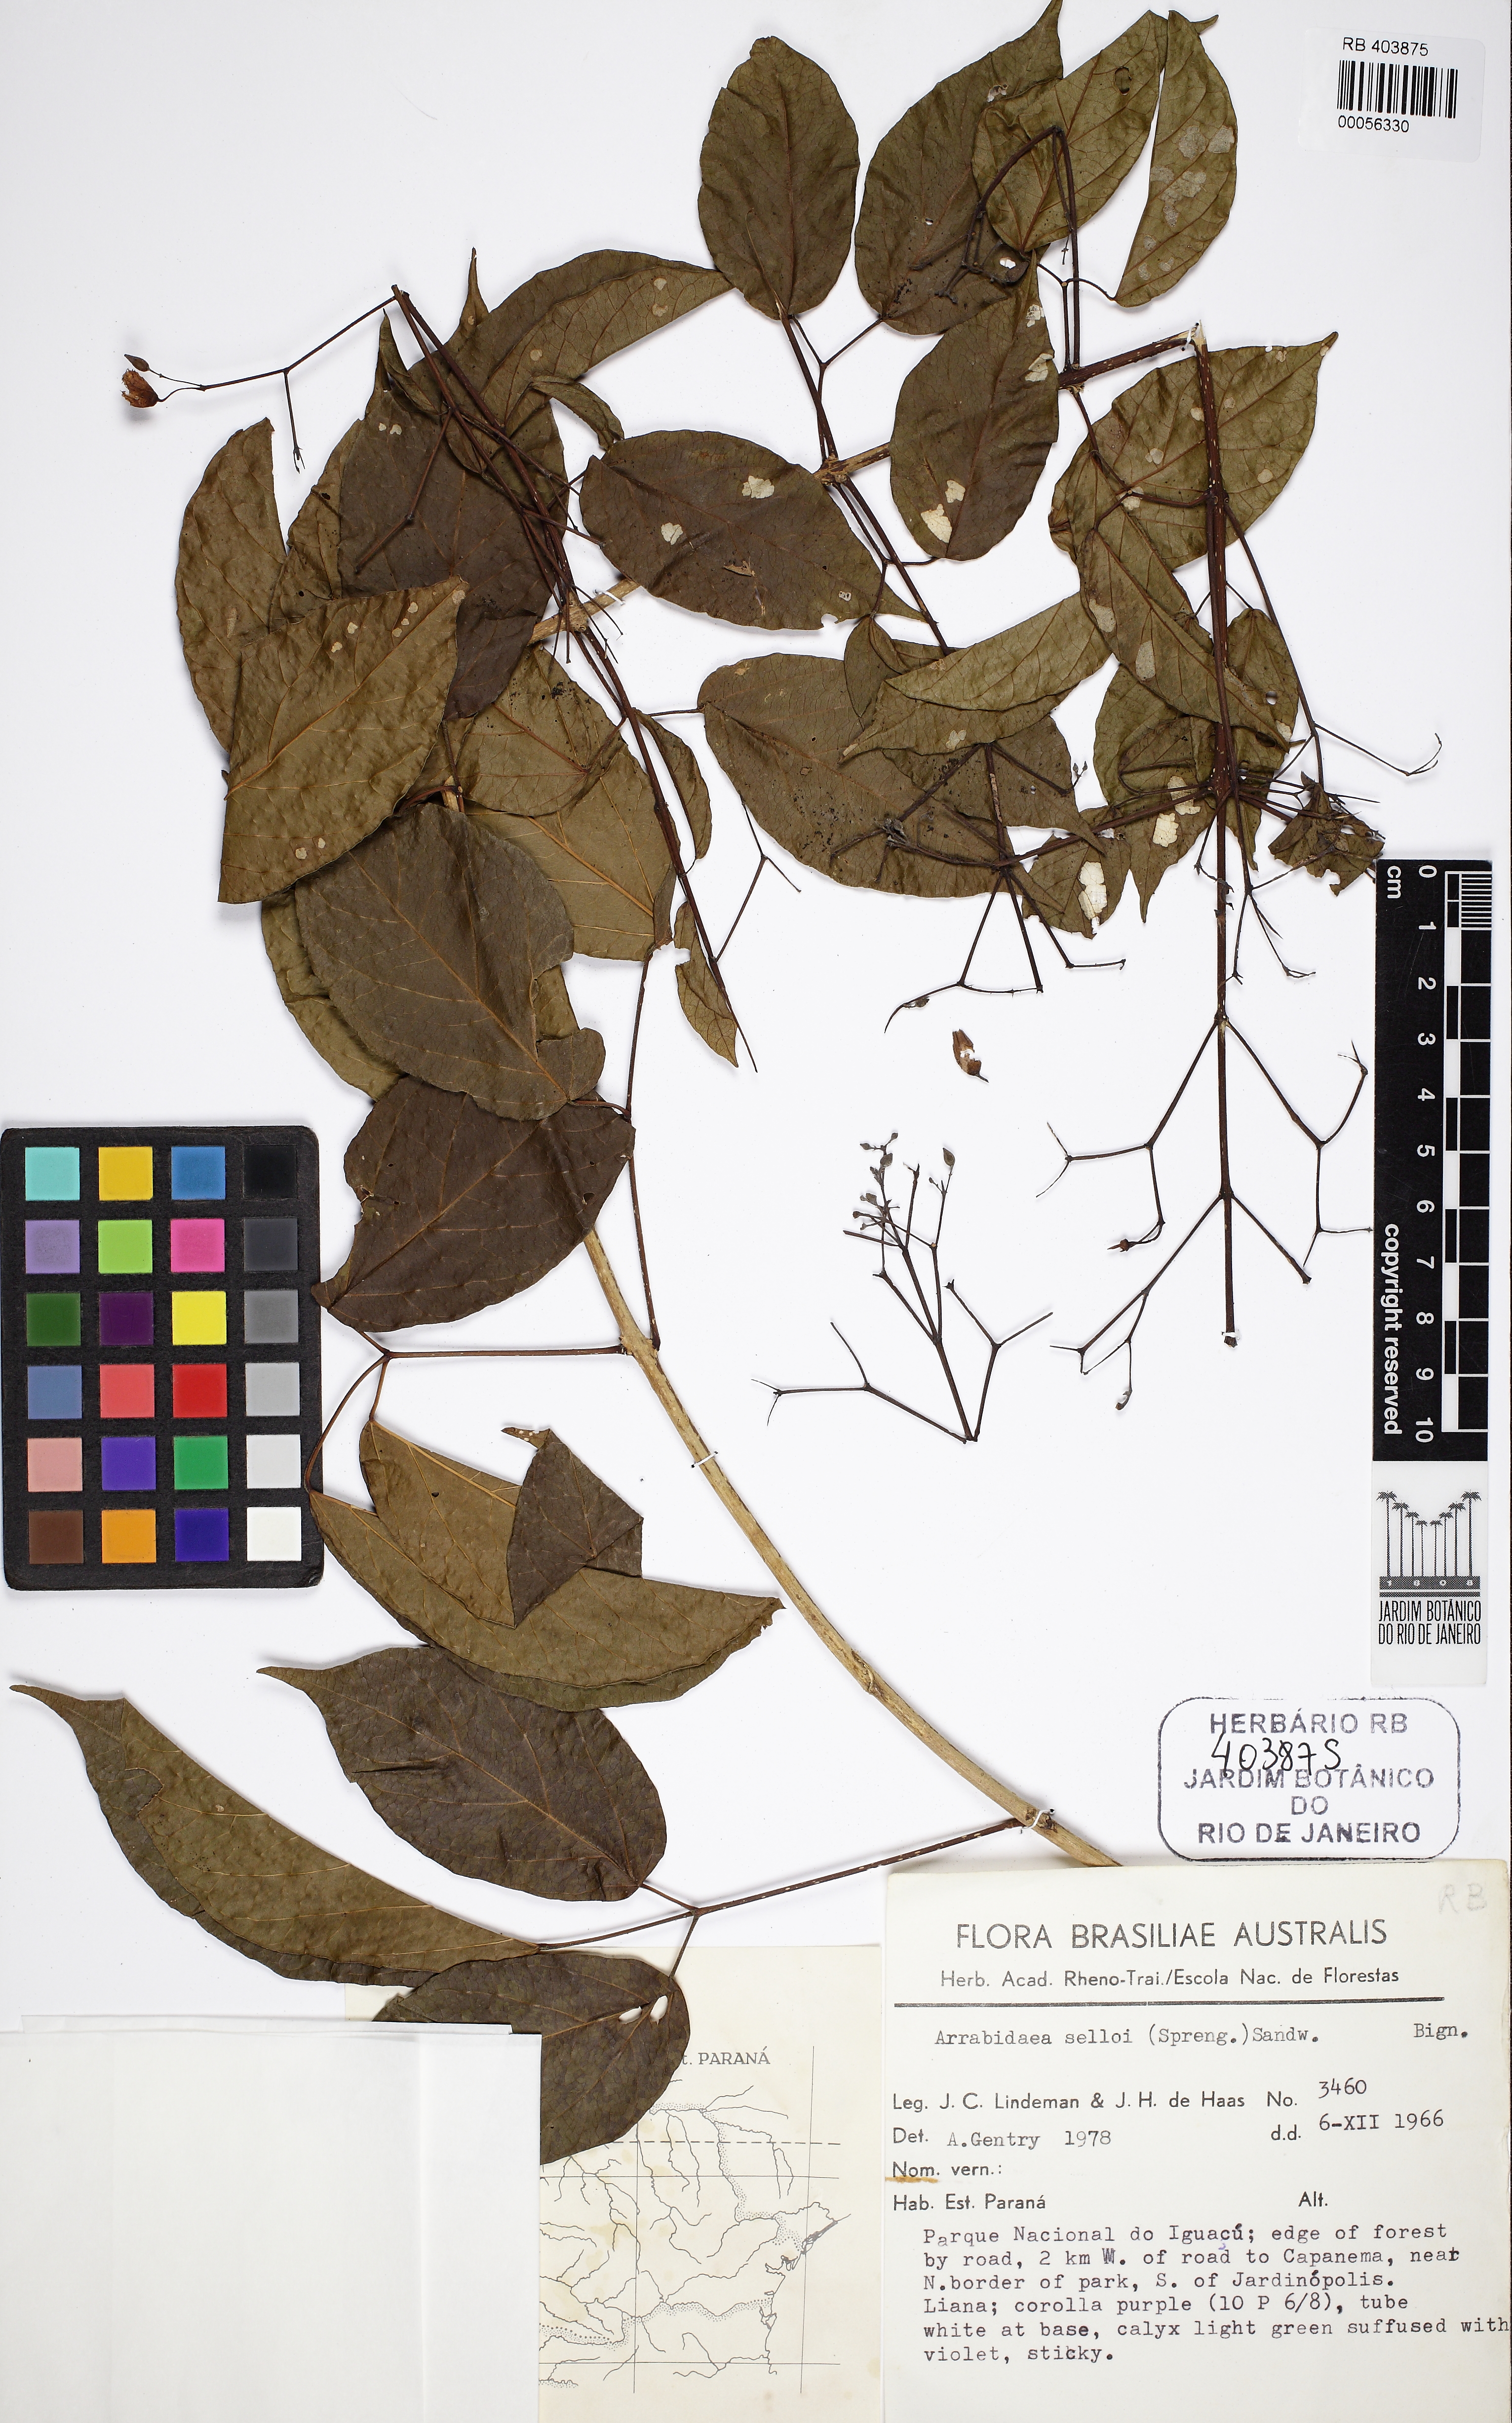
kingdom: Plantae
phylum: Tracheophyta
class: Magnoliopsida
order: Lamiales
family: Bignoniaceae
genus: Tanaecium
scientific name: Tanaecium selloi
